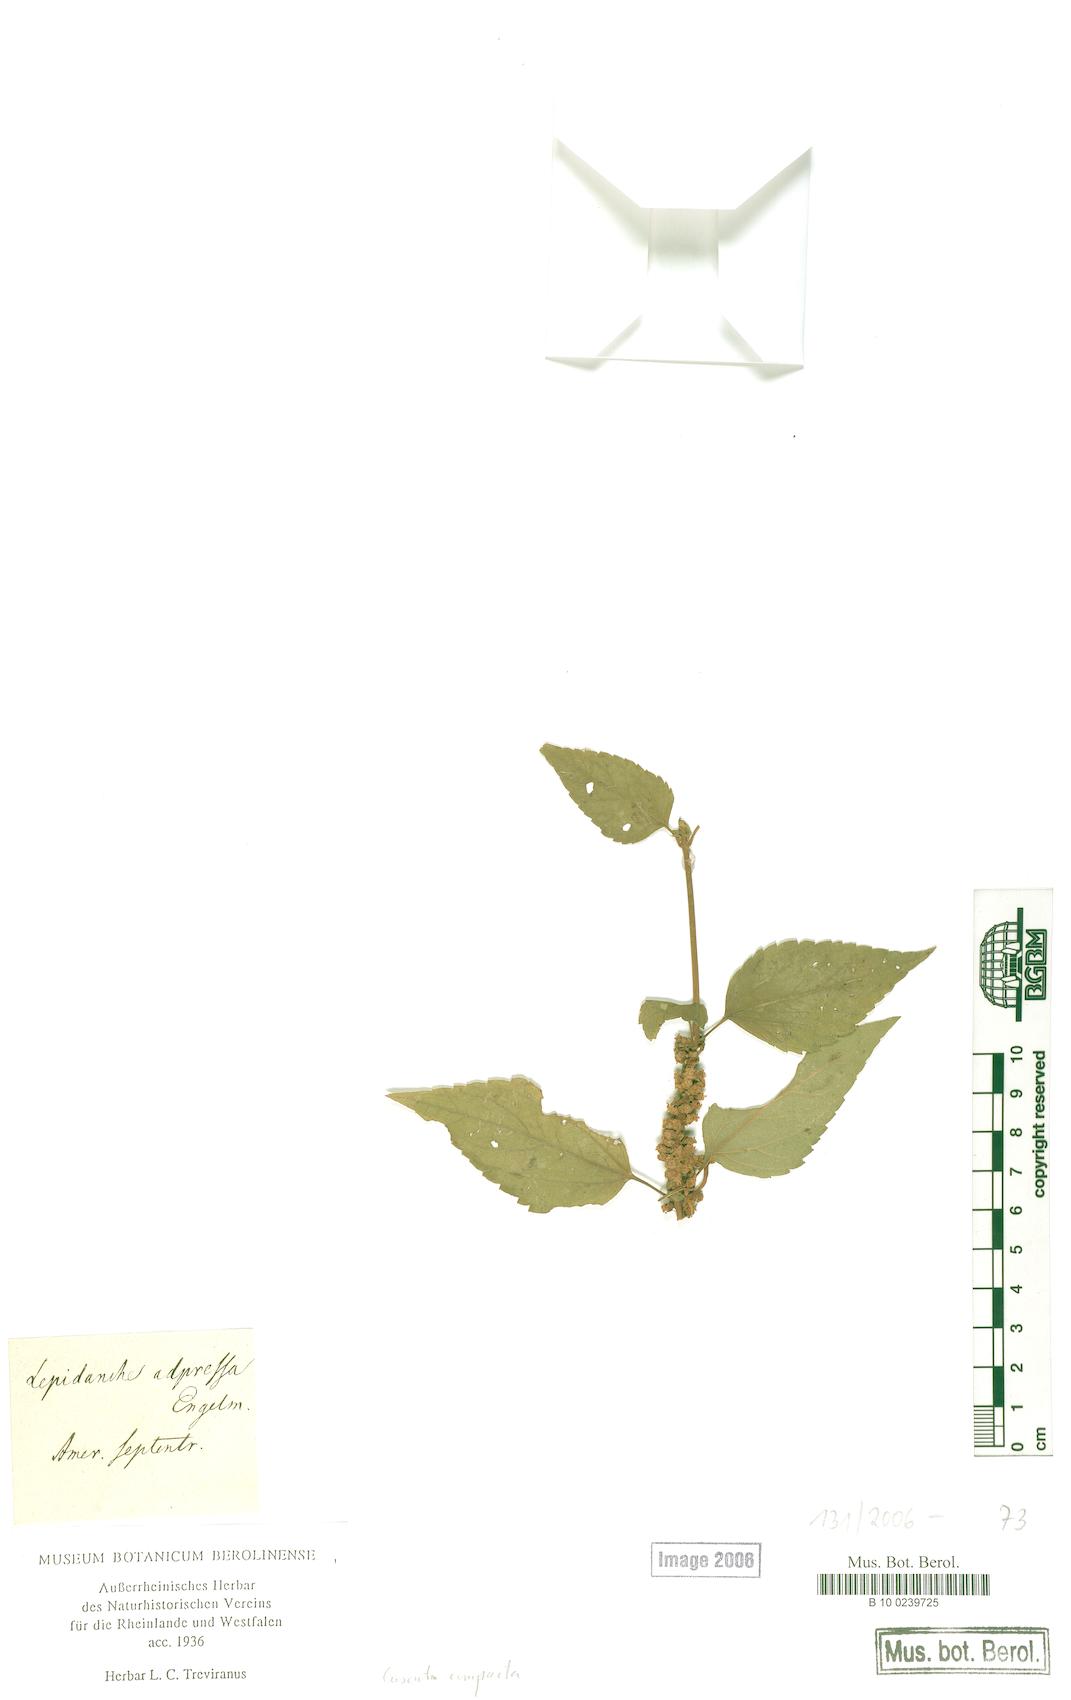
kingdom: Plantae
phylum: Tracheophyta
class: Magnoliopsida
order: Solanales
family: Convolvulaceae
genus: Cuscuta
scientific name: Cuscuta compacta
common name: Compact dodder
